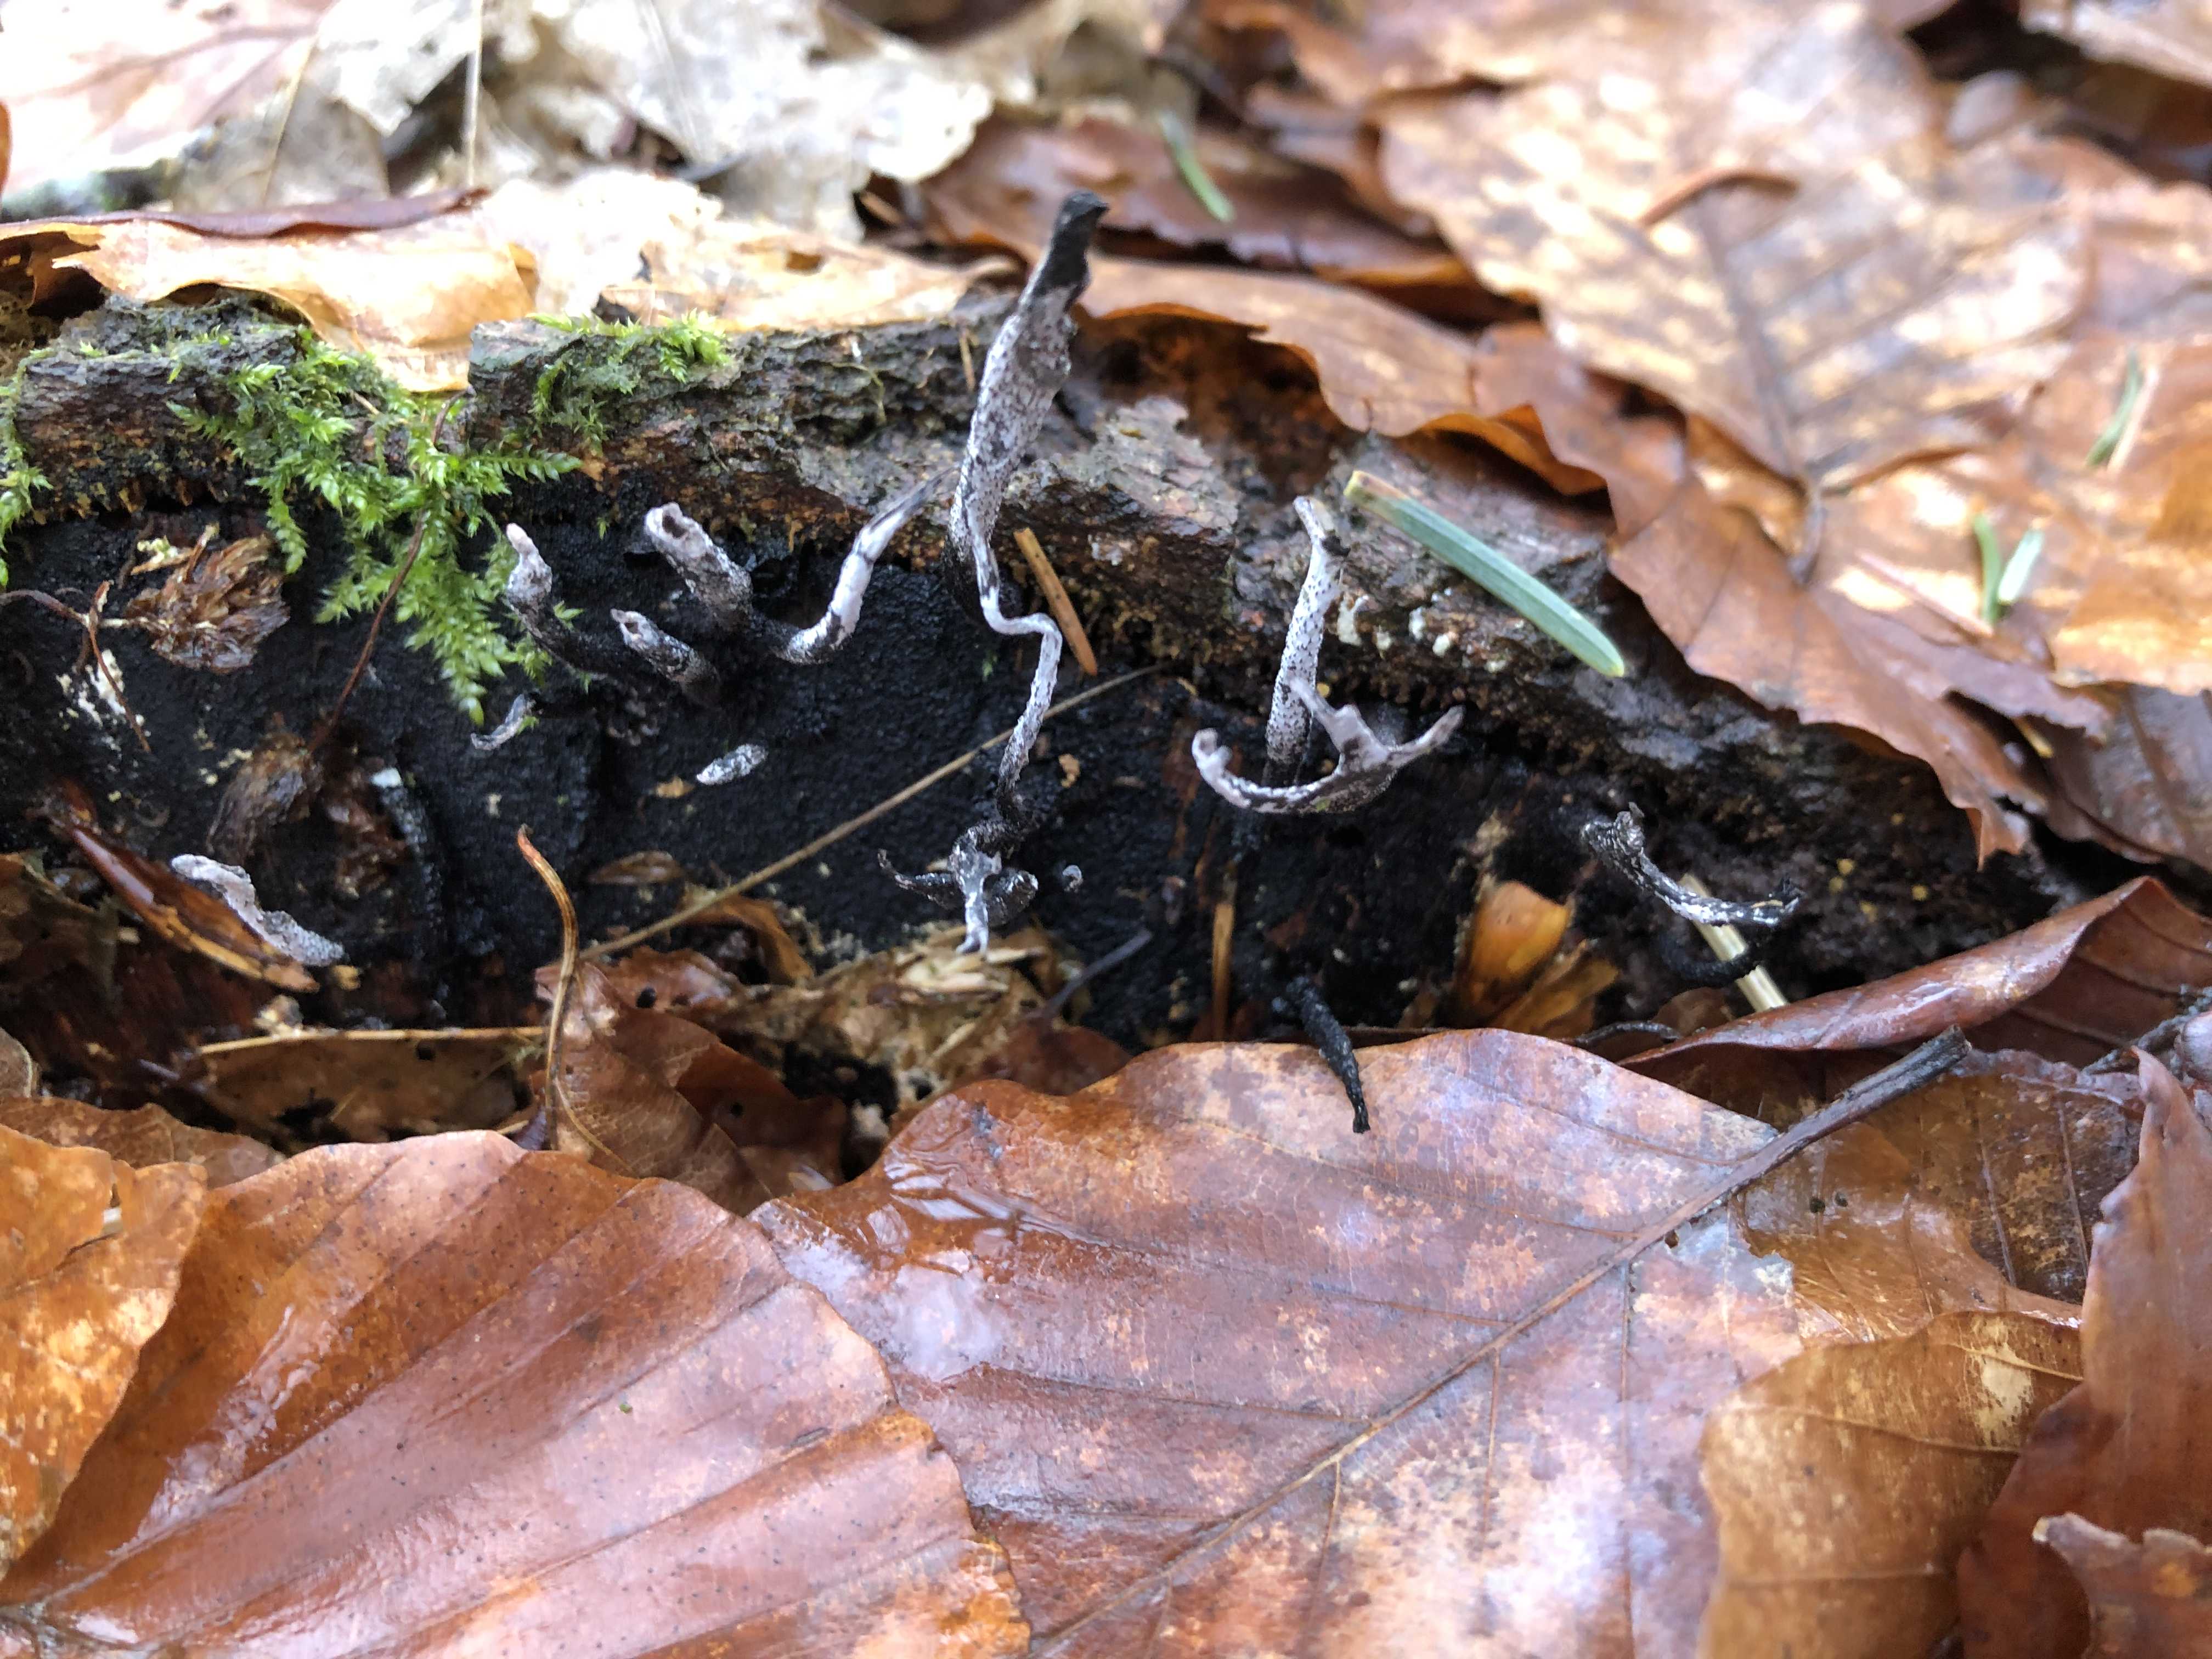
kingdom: Fungi
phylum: Ascomycota
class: Sordariomycetes
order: Xylariales
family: Xylariaceae
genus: Xylaria
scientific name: Xylaria hypoxylon
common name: grenet stødsvamp
